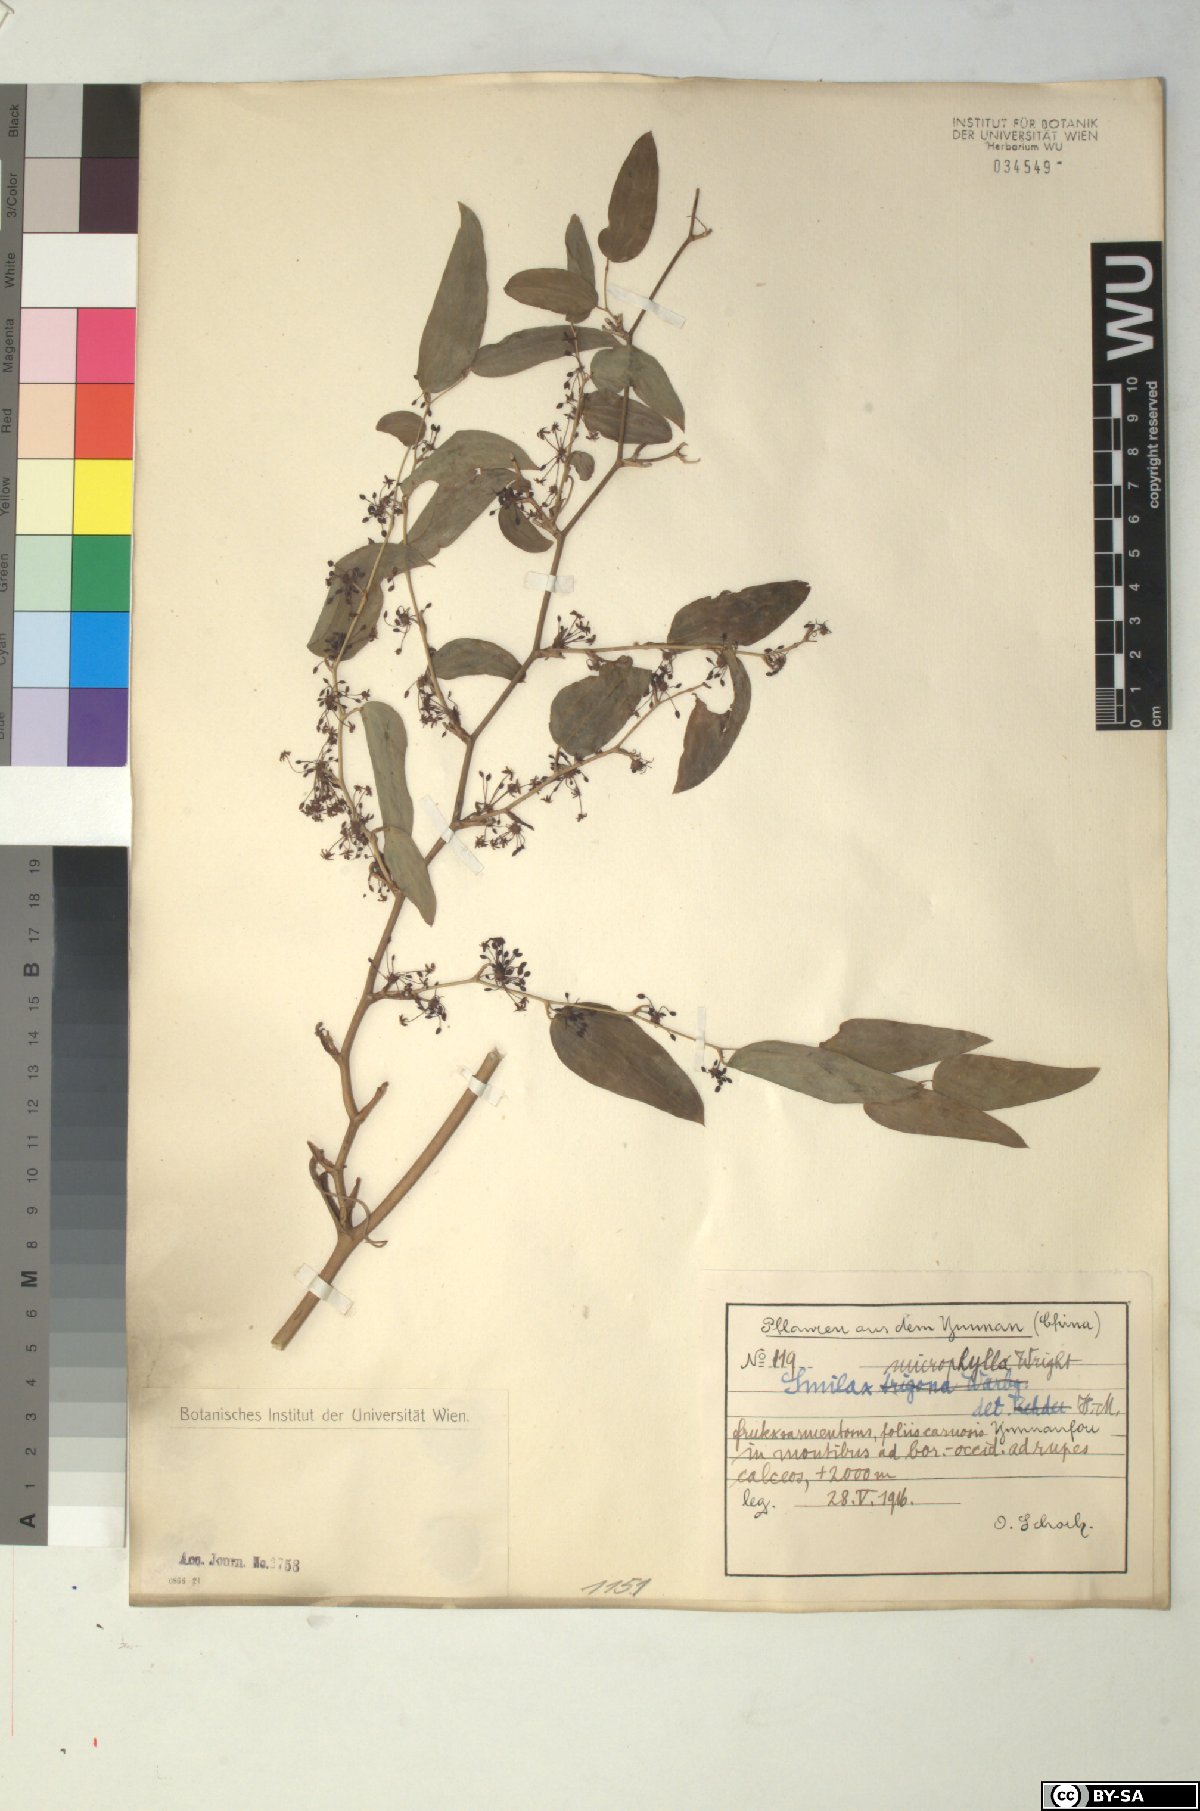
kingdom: Plantae
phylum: Tracheophyta
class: Liliopsida
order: Liliales
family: Smilacaceae
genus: Smilax
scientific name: Smilax microphylla
